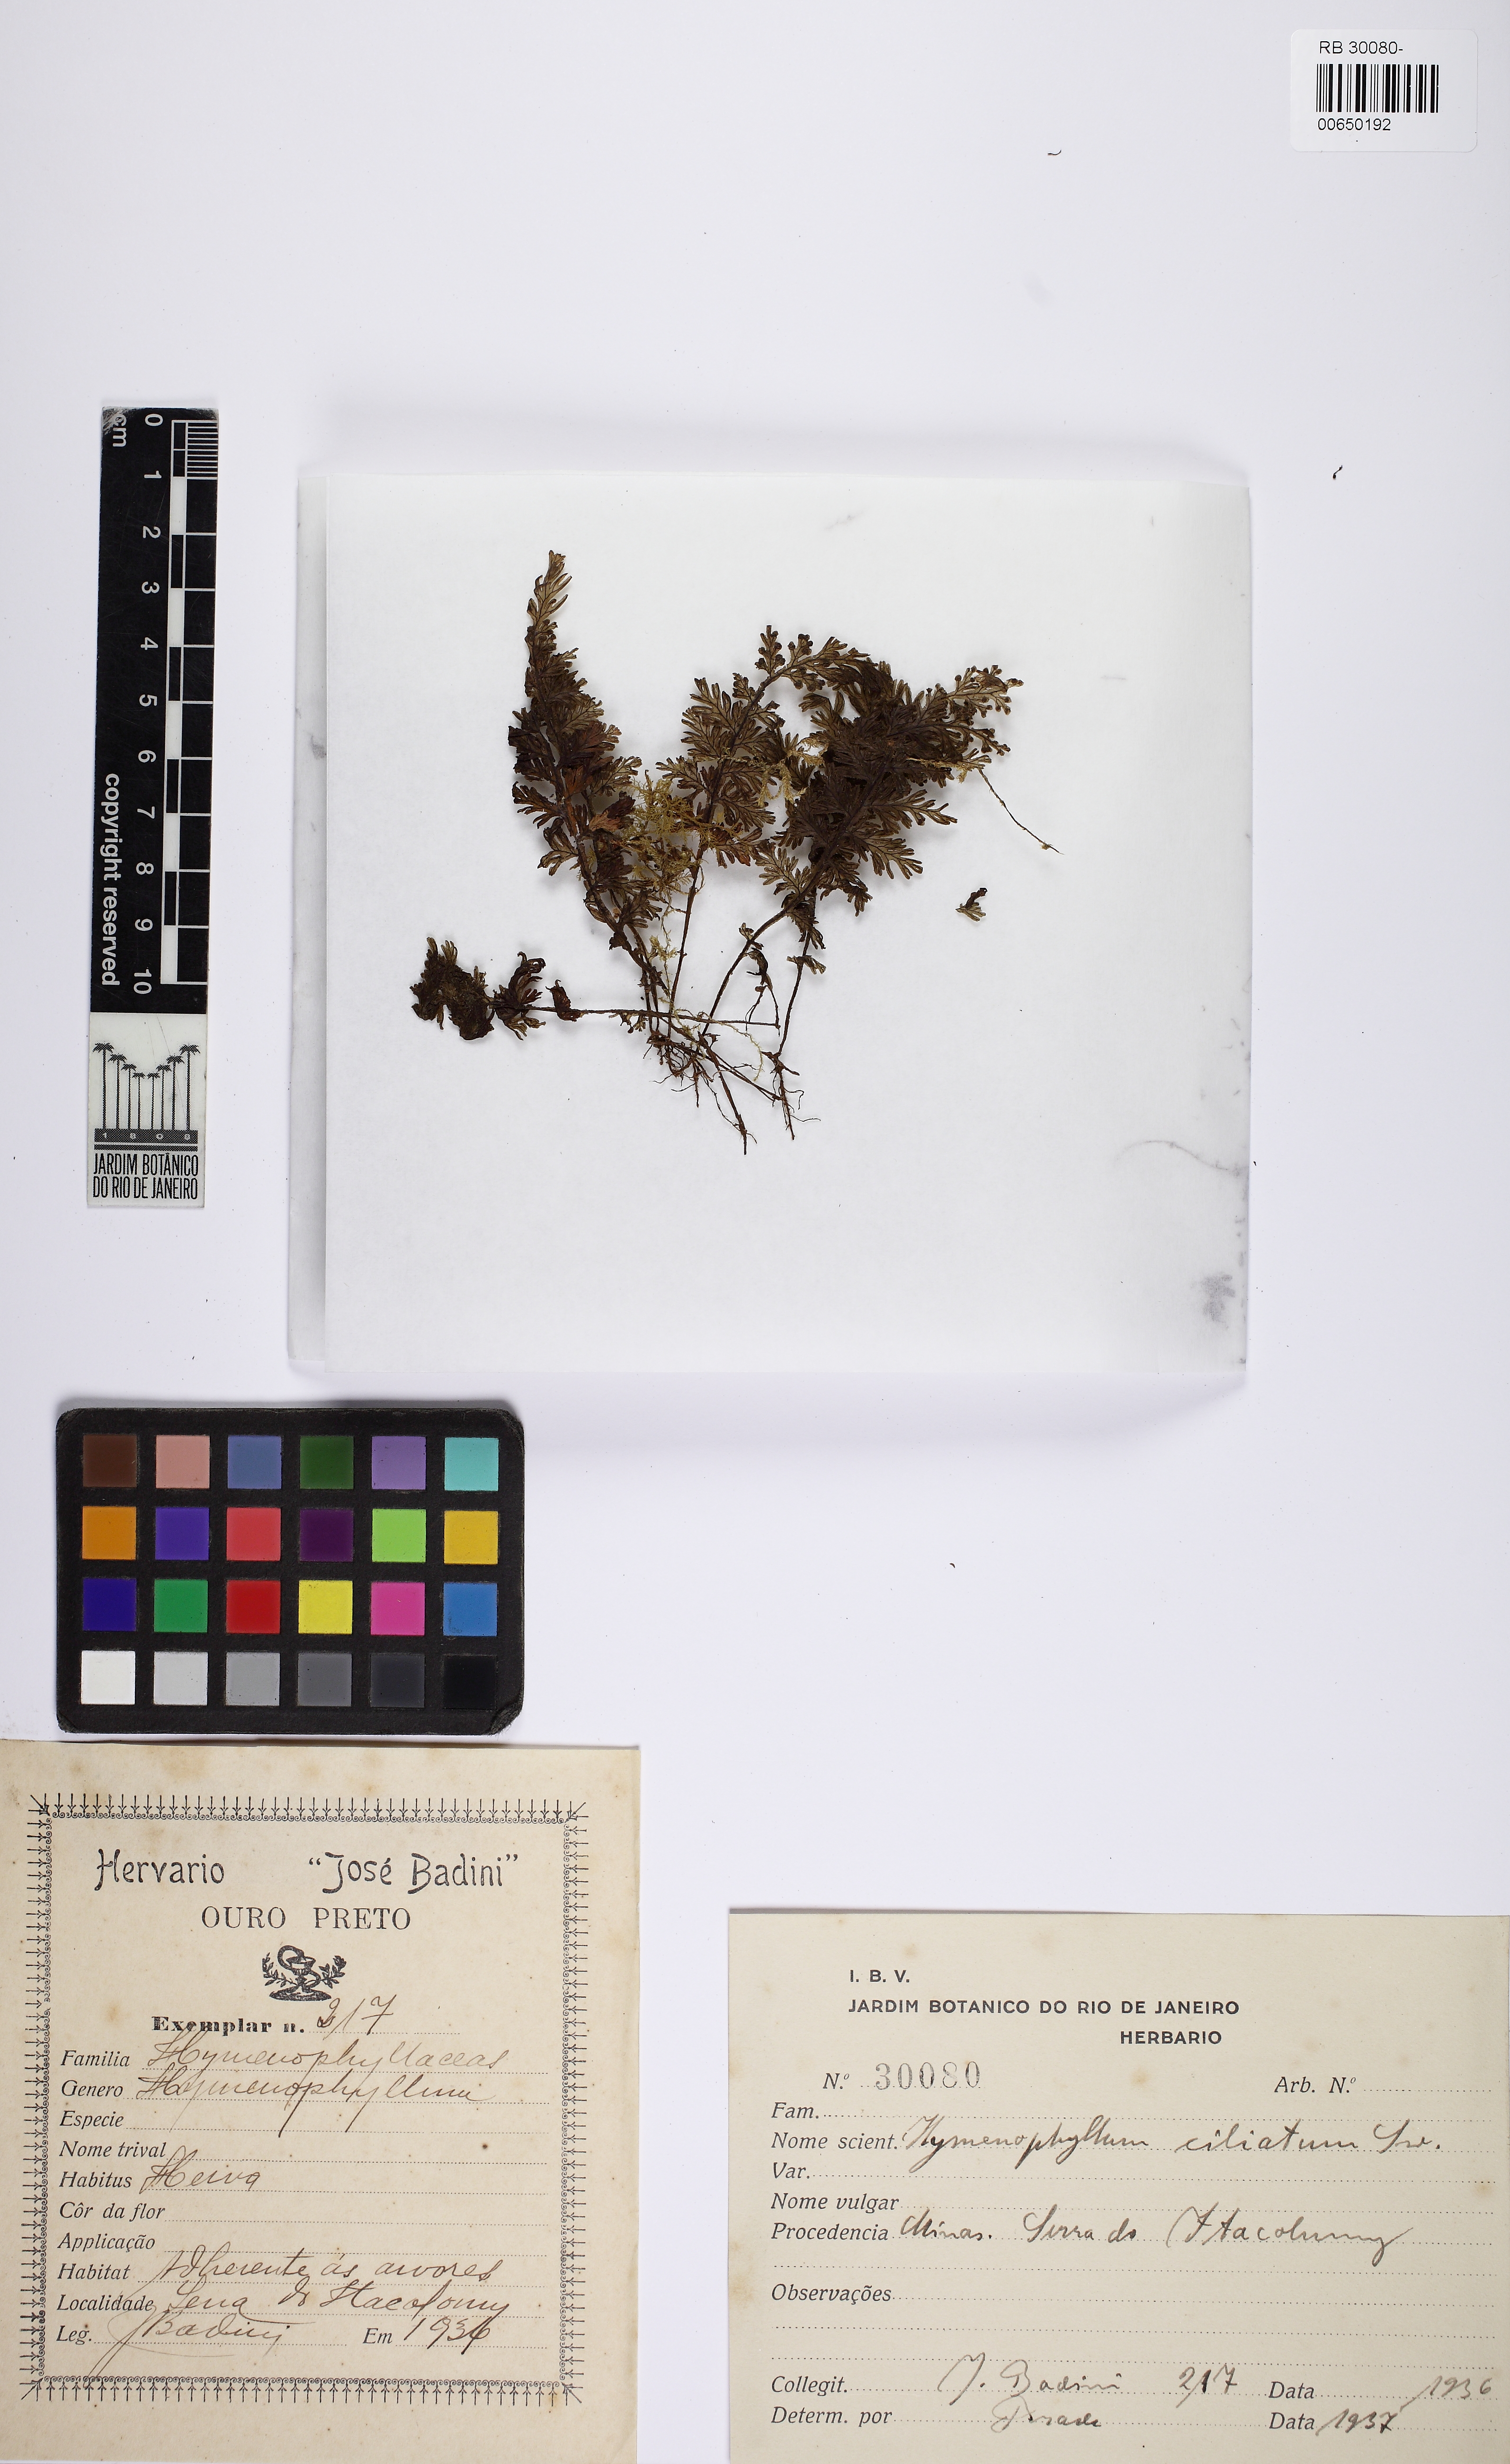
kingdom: Plantae
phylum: Tracheophyta
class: Polypodiopsida
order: Hymenophyllales
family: Hymenophyllaceae
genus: Hymenophyllum
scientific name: Hymenophyllum hirsutum
